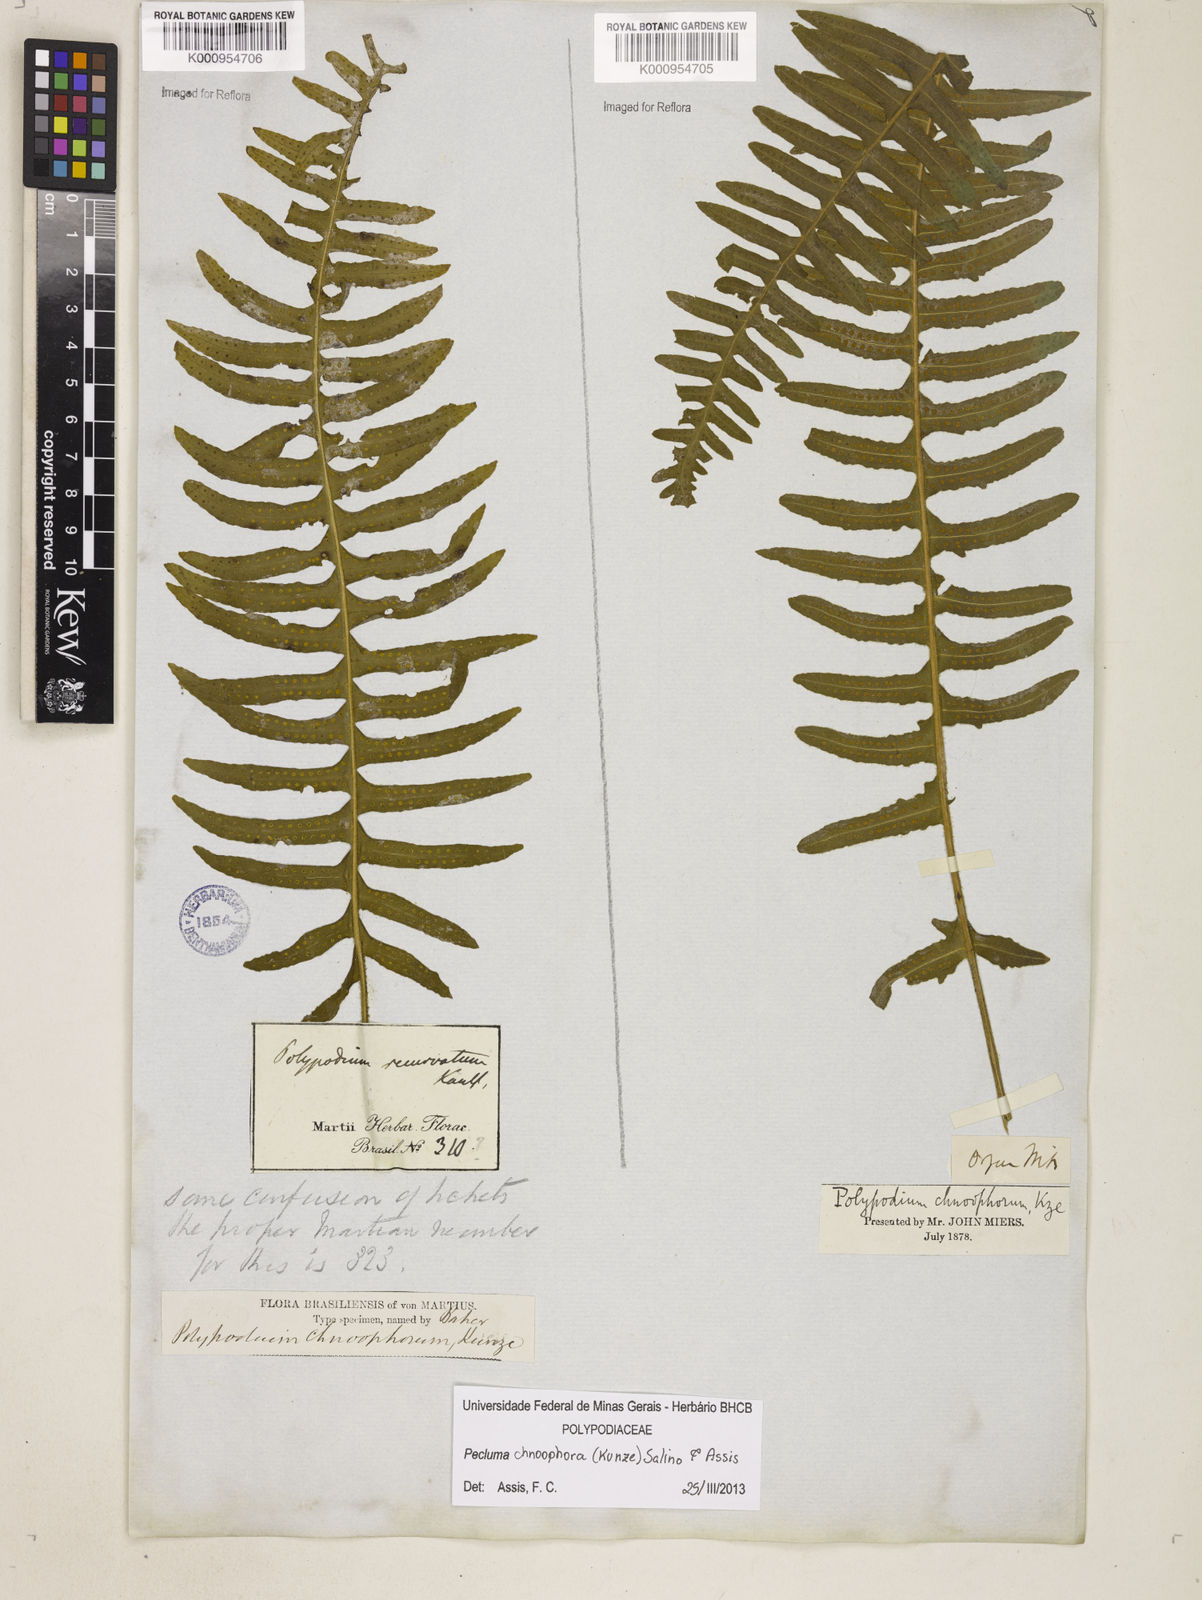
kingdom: Plantae
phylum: Tracheophyta
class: Polypodiopsida
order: Polypodiales
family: Polypodiaceae
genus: Pecluma
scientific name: Pecluma chnoophora
